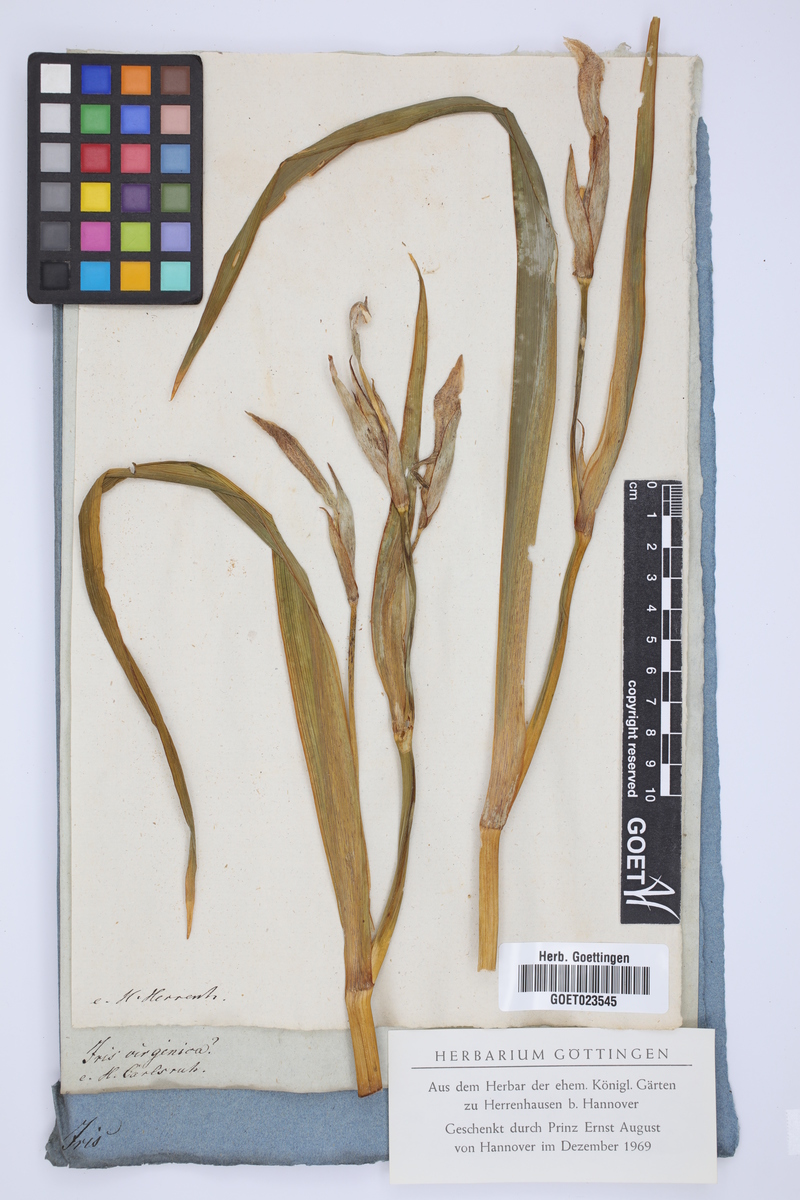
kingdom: Plantae
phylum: Tracheophyta
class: Liliopsida
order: Asparagales
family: Iridaceae
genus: Iris
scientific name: Iris virginica
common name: Southern blue flag
